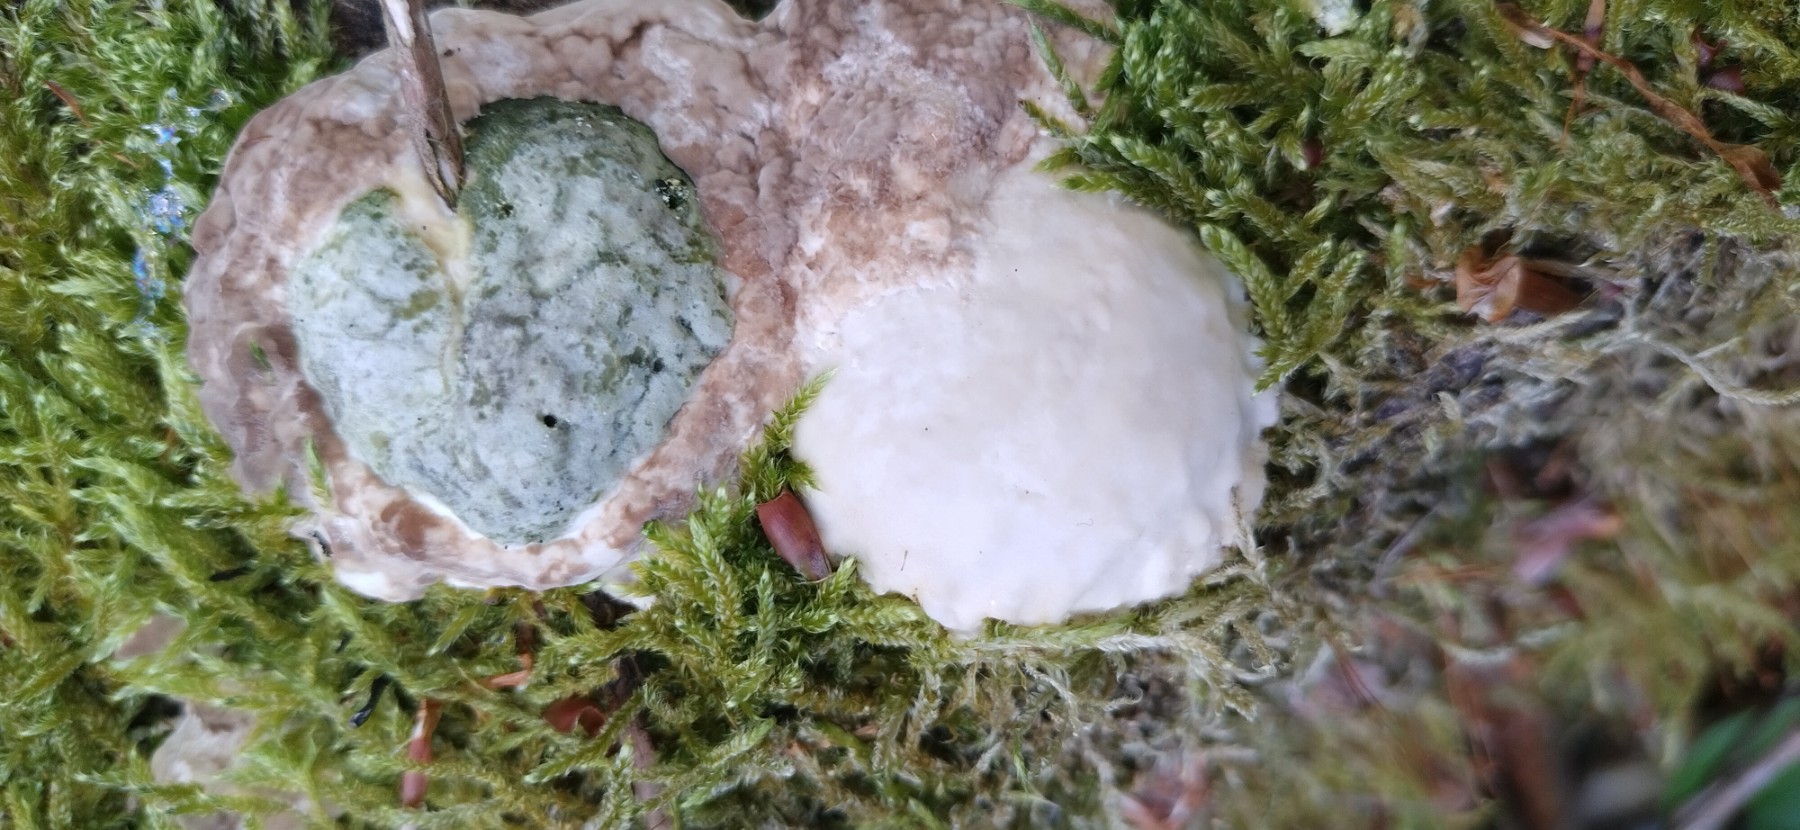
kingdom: Fungi
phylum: Basidiomycota
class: Agaricomycetes
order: Polyporales
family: Polyporaceae
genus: Trametes
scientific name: Trametes hirsuta
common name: håret læderporesvamp
